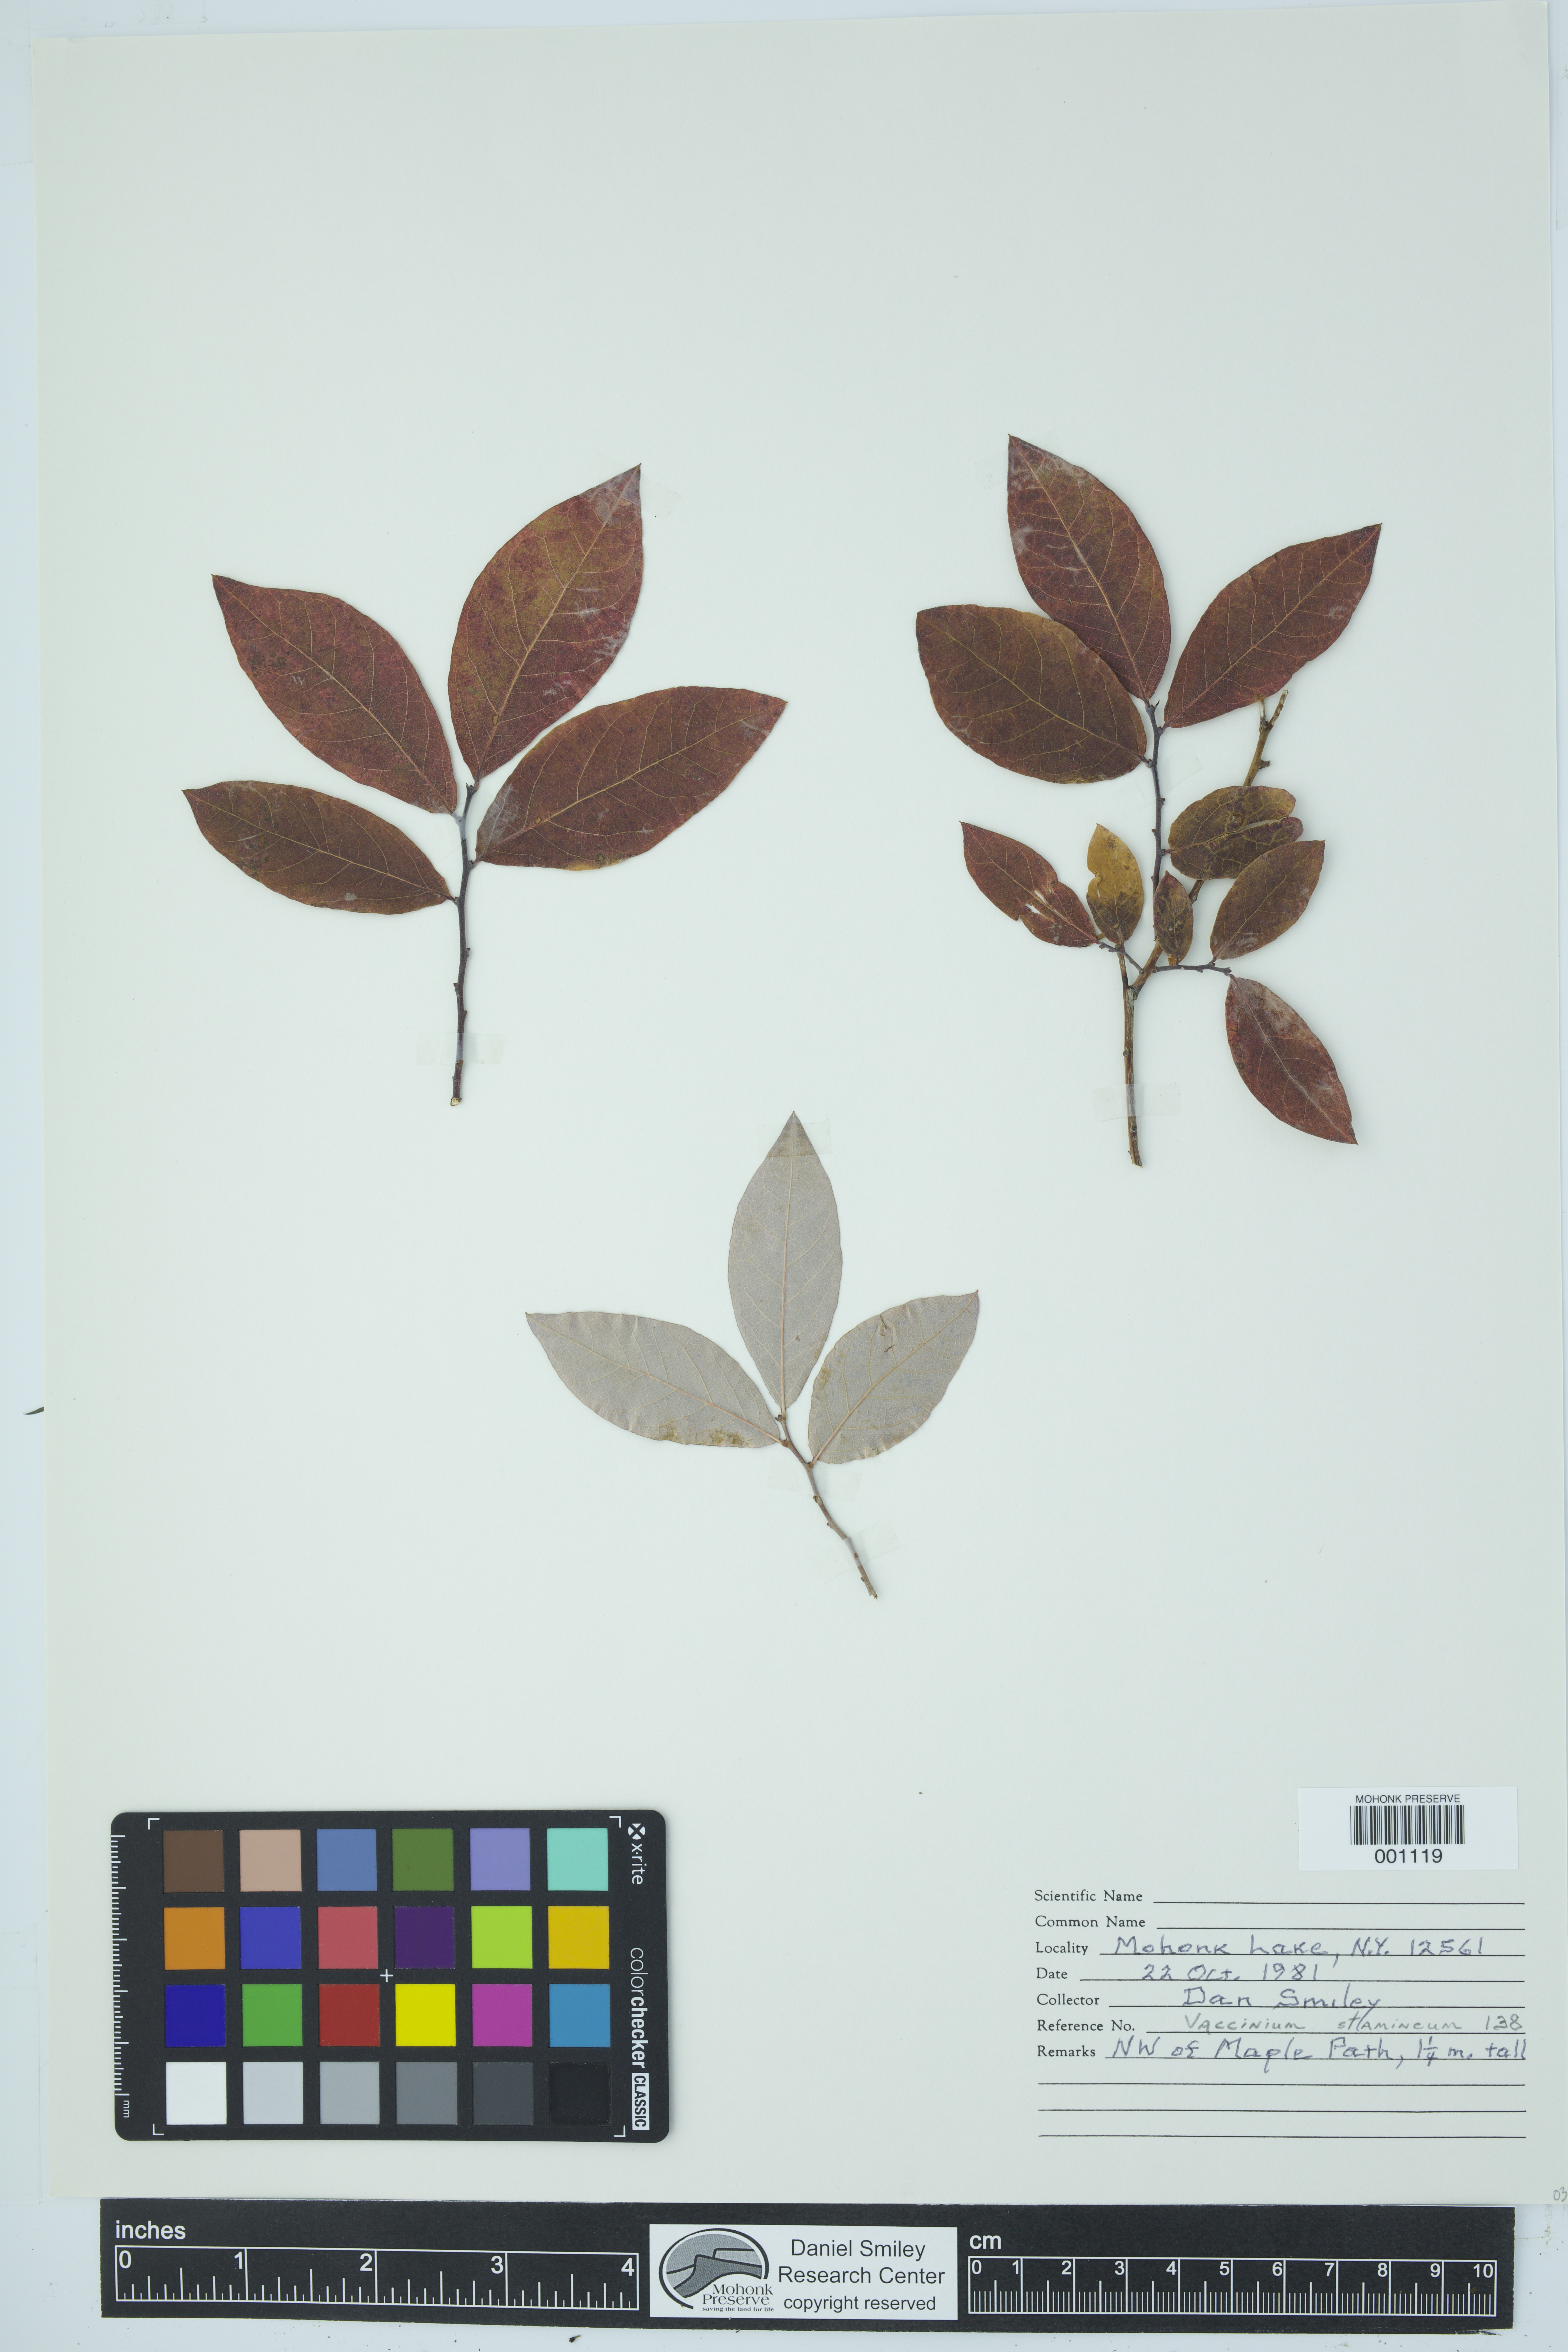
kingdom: Plantae
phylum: Tracheophyta
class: Magnoliopsida
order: Ericales
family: Ericaceae
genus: Vaccinium
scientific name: Vaccinium stamineum
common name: Deerberry
